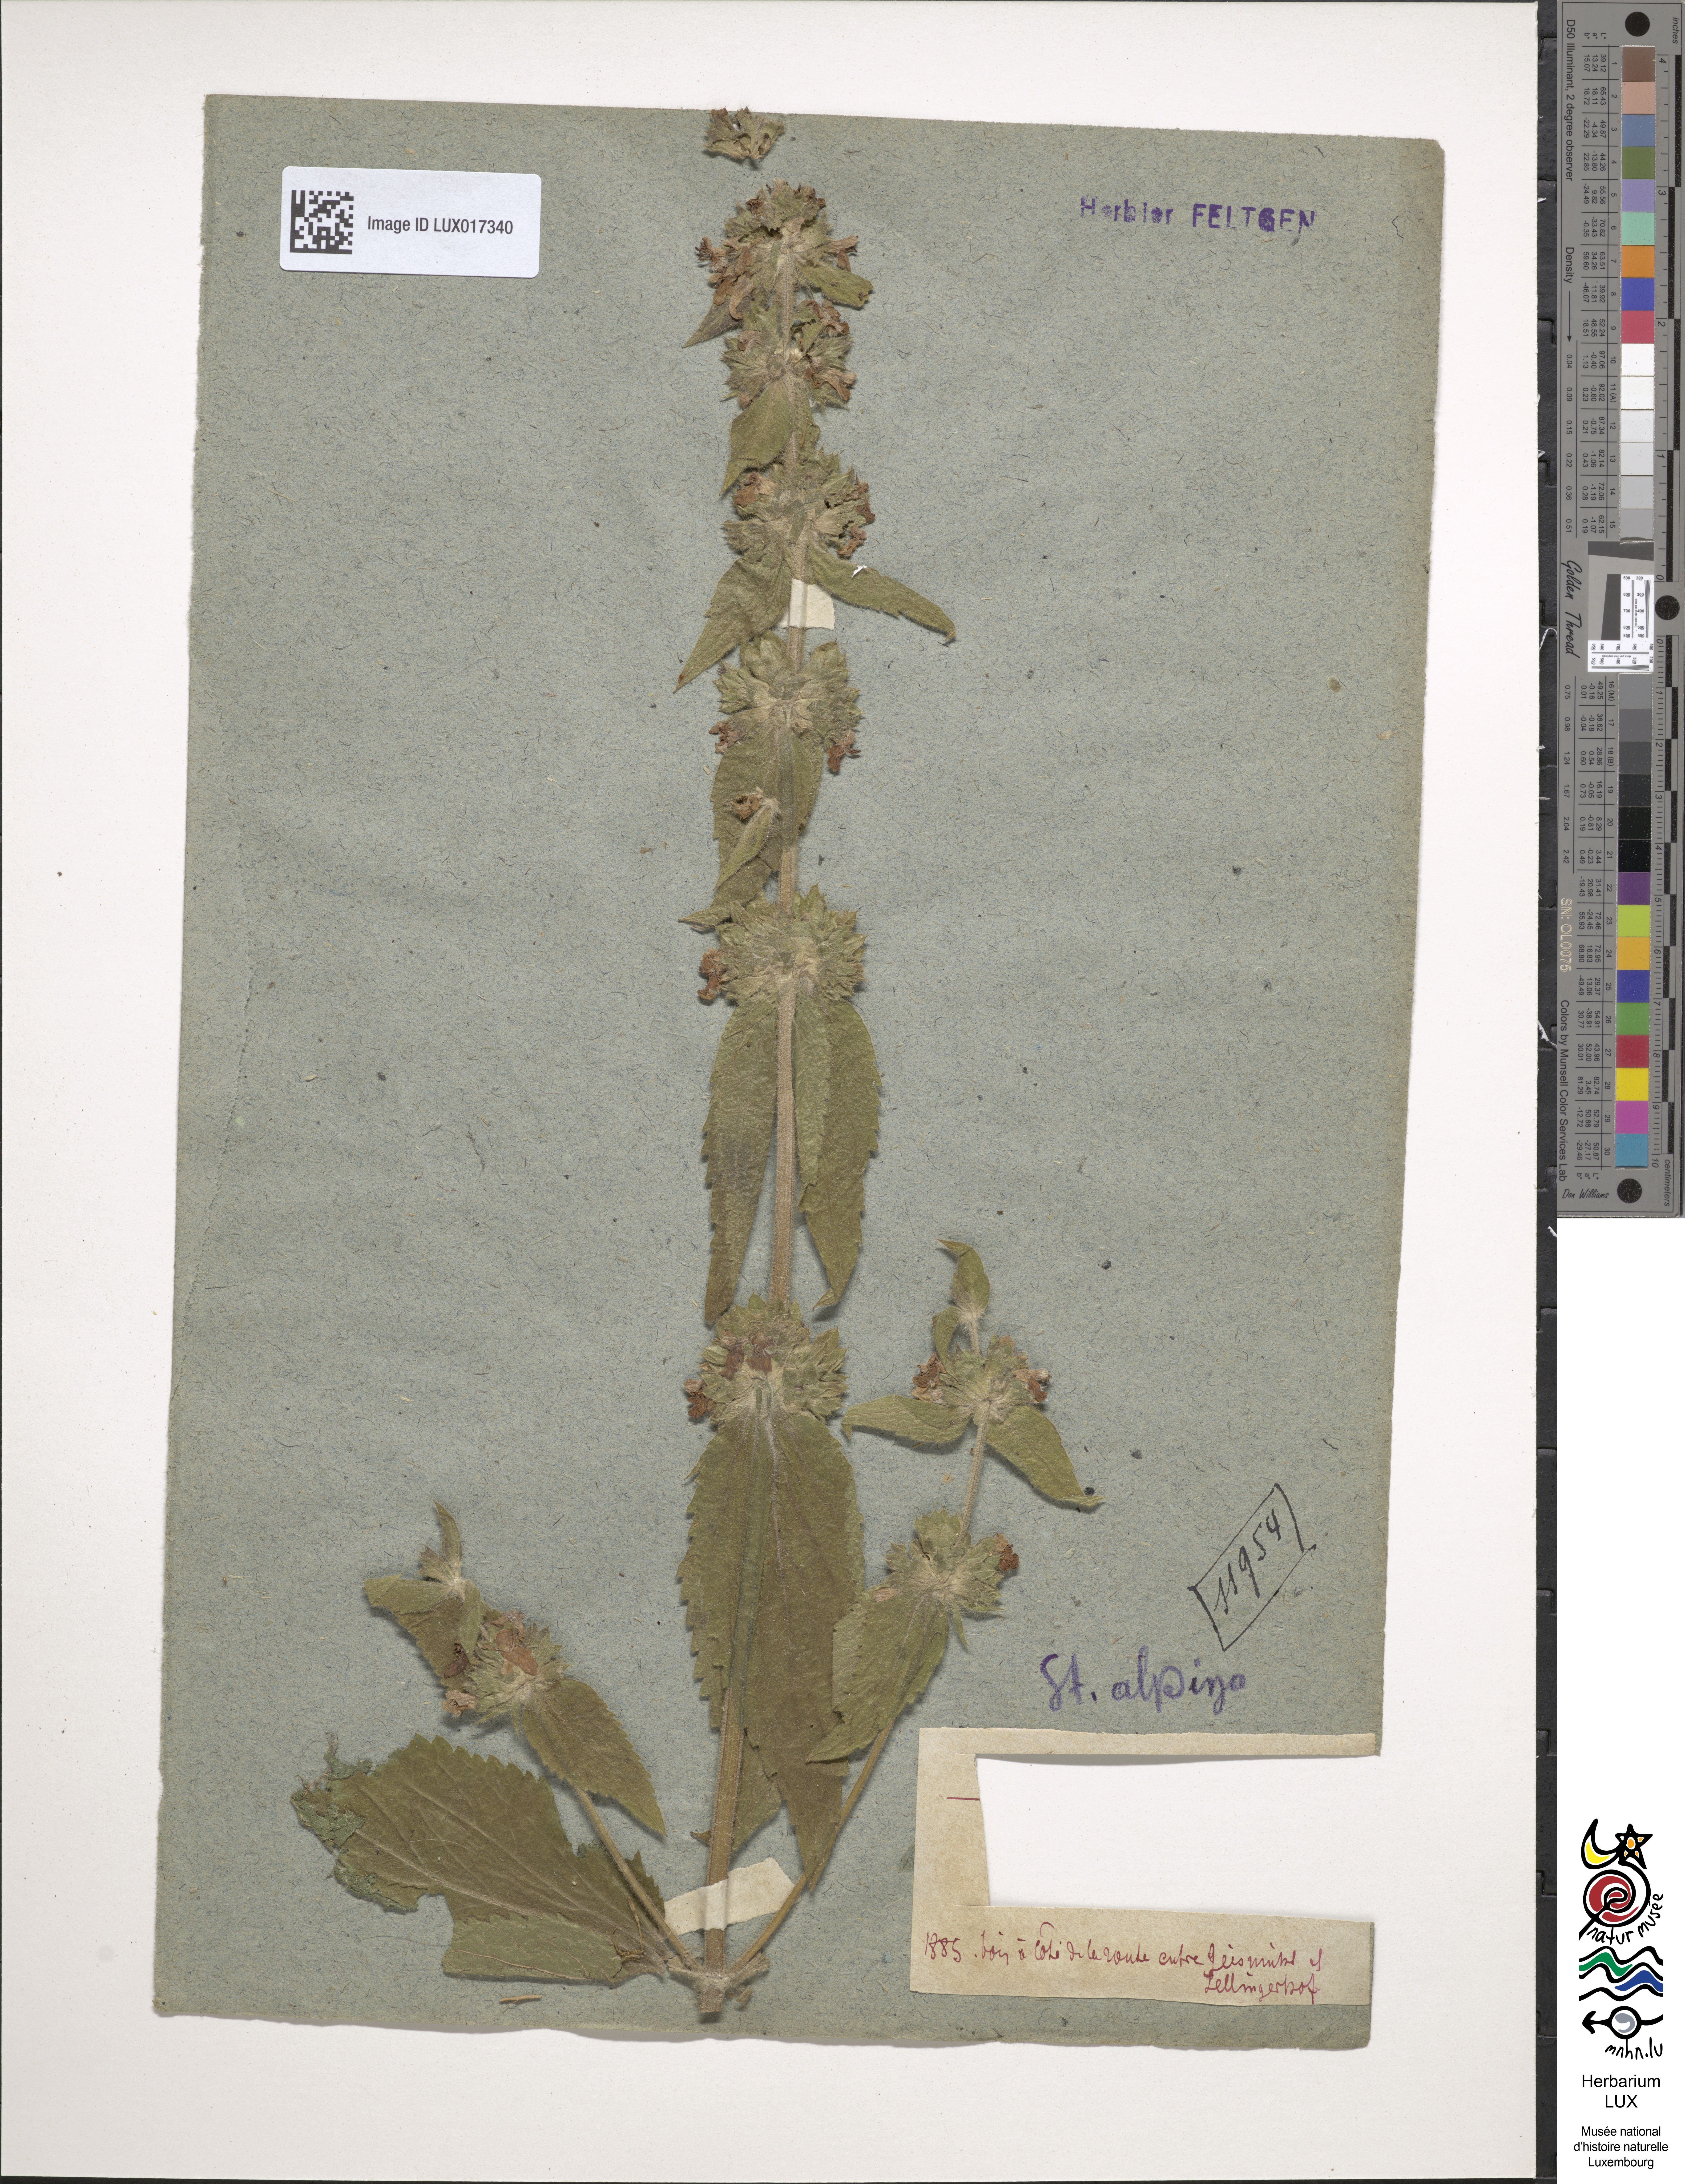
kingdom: Plantae
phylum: Tracheophyta
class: Magnoliopsida
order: Lamiales
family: Lamiaceae
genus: Stachys
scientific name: Stachys alpina
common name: Limestone woundwort
